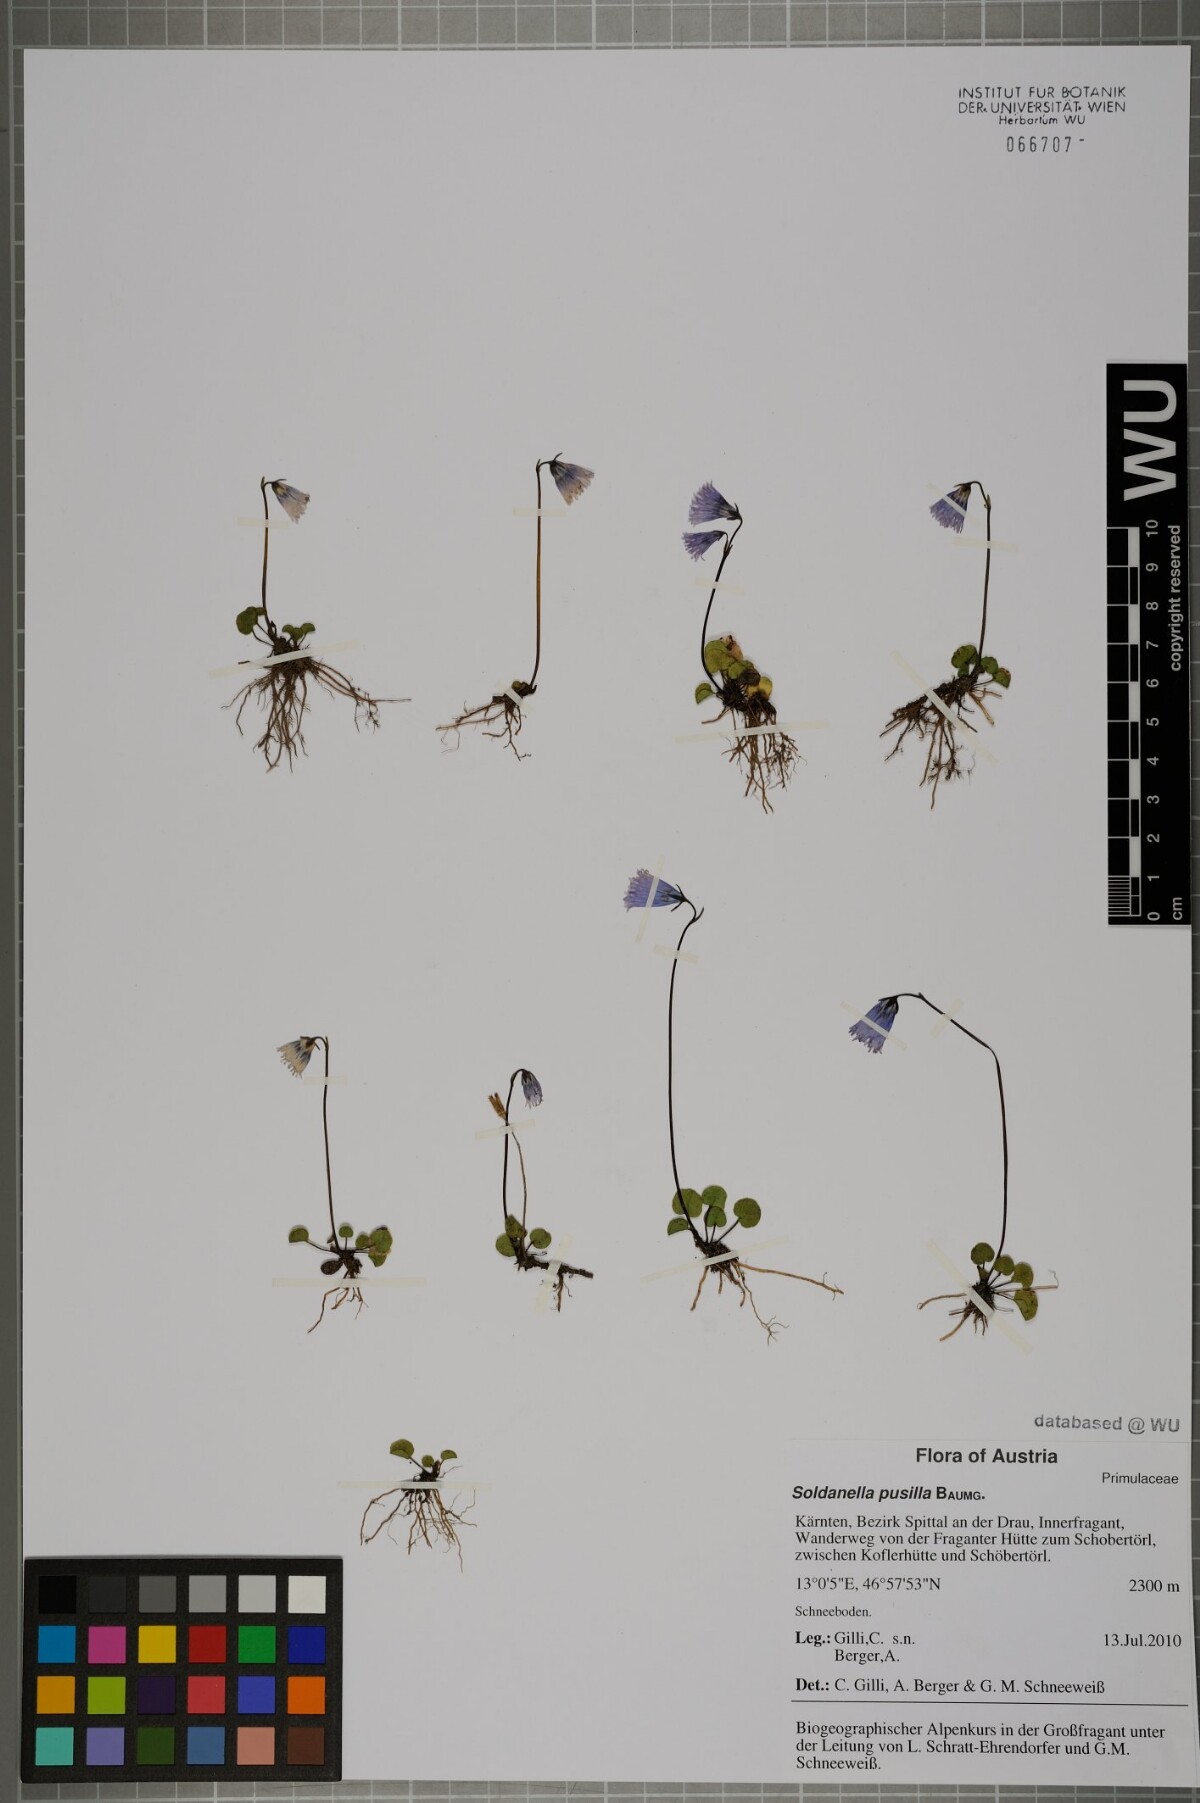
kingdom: Plantae
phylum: Tracheophyta
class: Magnoliopsida
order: Ericales
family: Primulaceae
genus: Soldanella
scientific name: Soldanella pusilla
